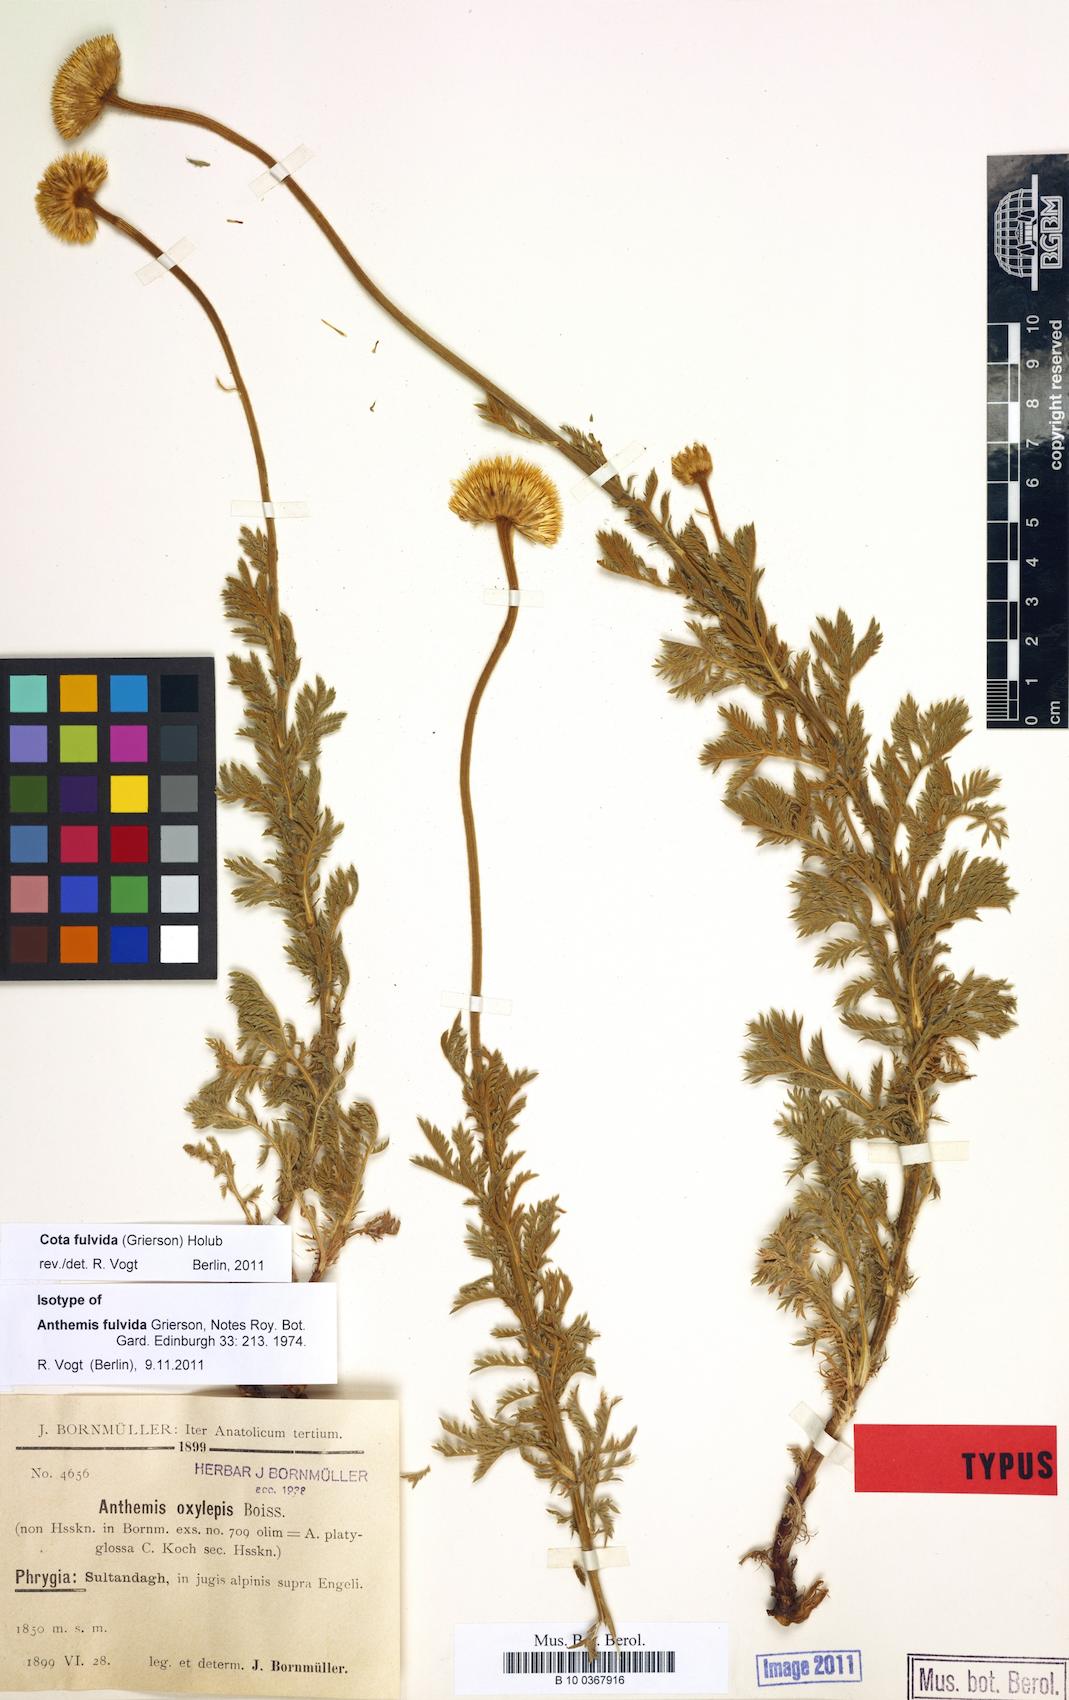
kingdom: Plantae
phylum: Tracheophyta
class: Magnoliopsida
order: Asterales
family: Asteraceae
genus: Cota
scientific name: Cota fulvida
